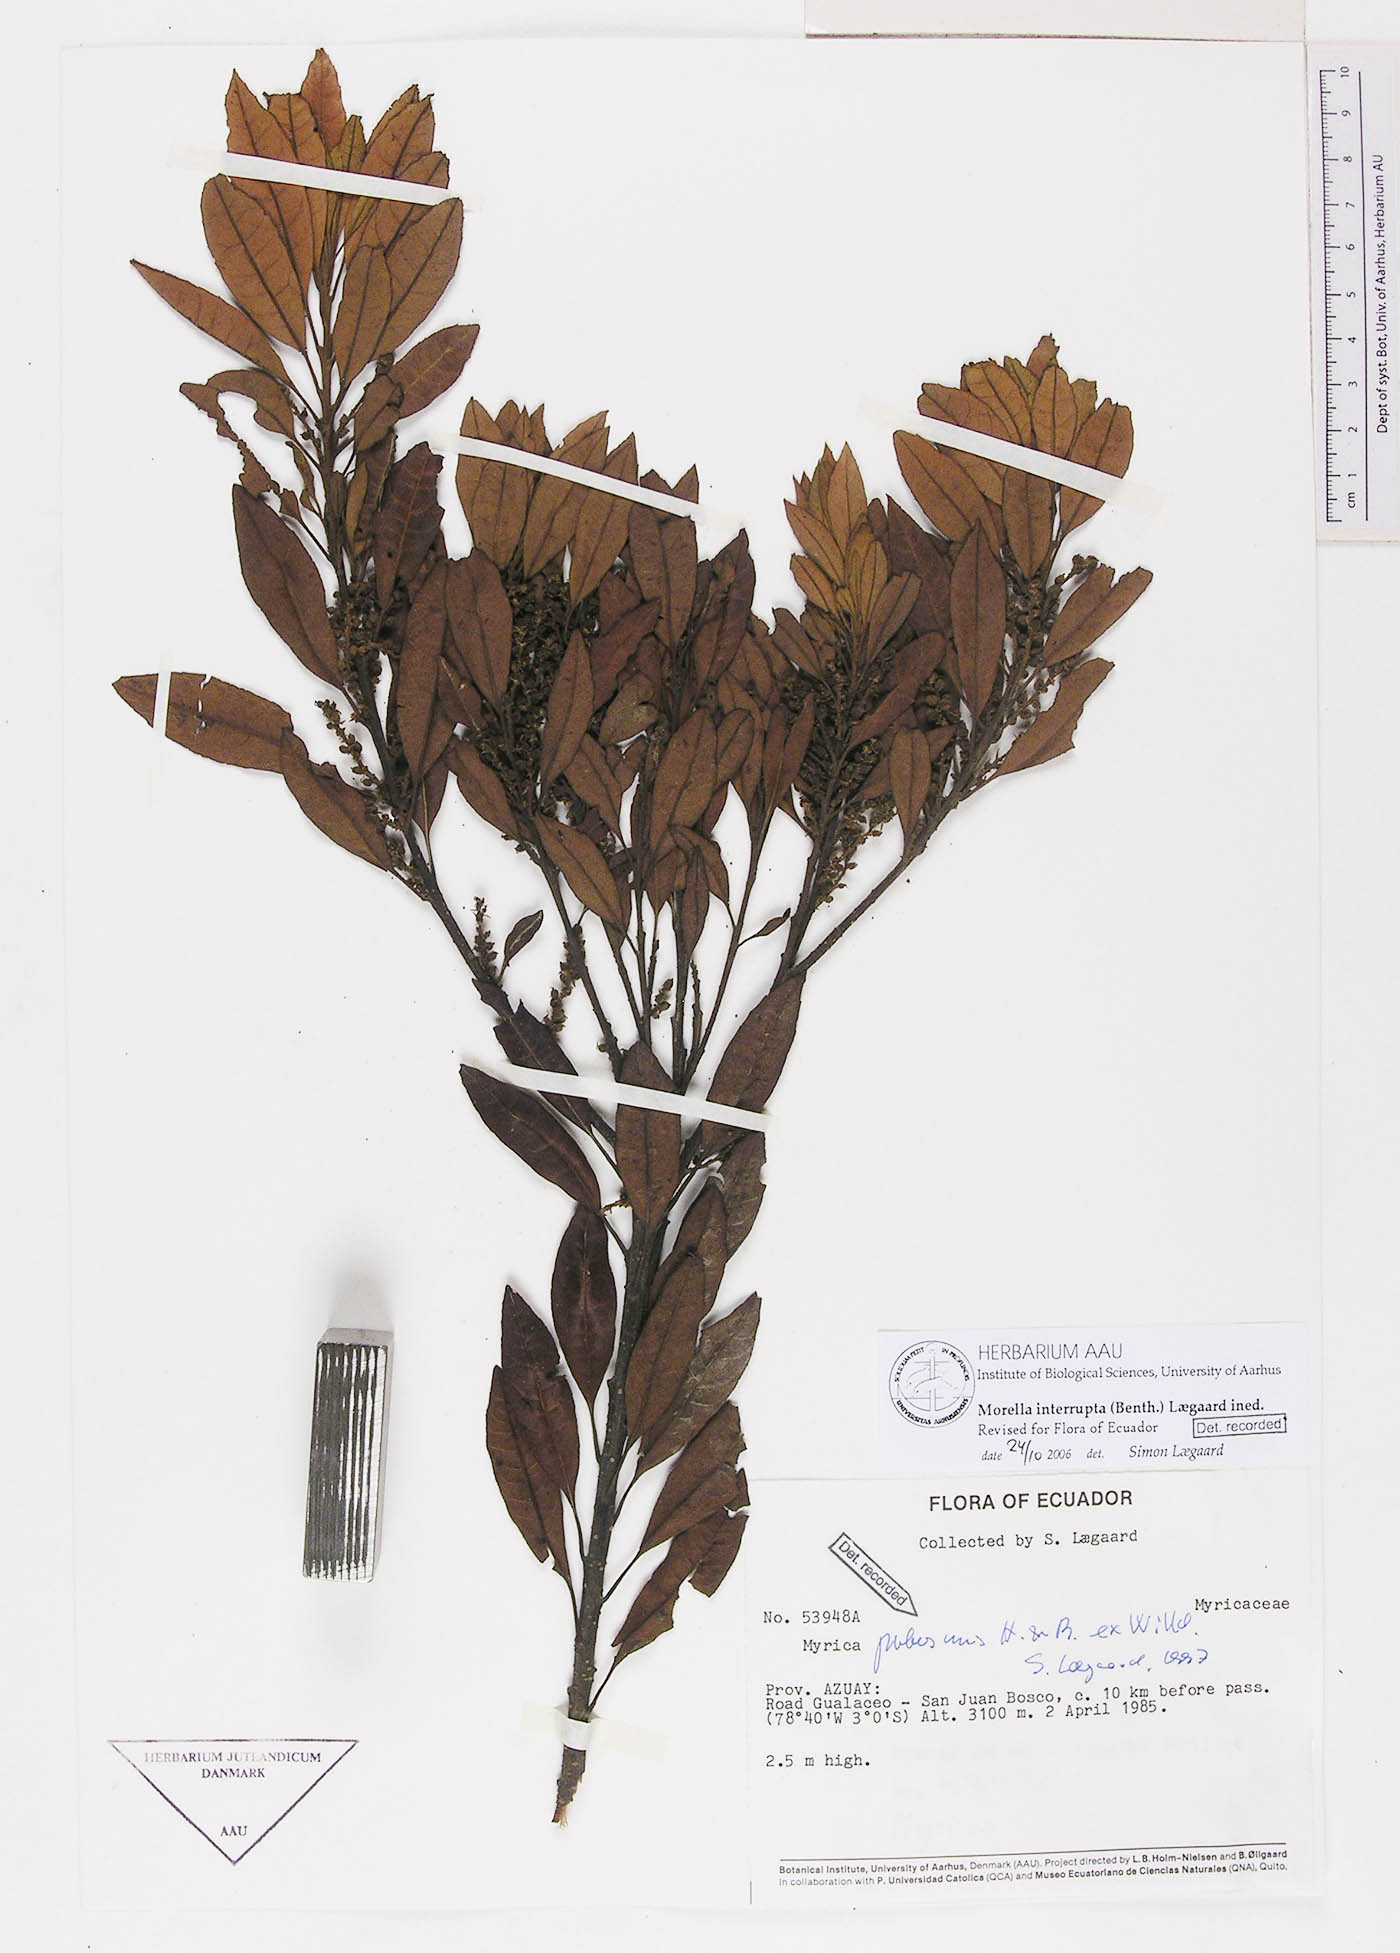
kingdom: Plantae
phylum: Tracheophyta
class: Magnoliopsida
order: Fagales
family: Myricaceae
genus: Morella
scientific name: Morella interrupta
